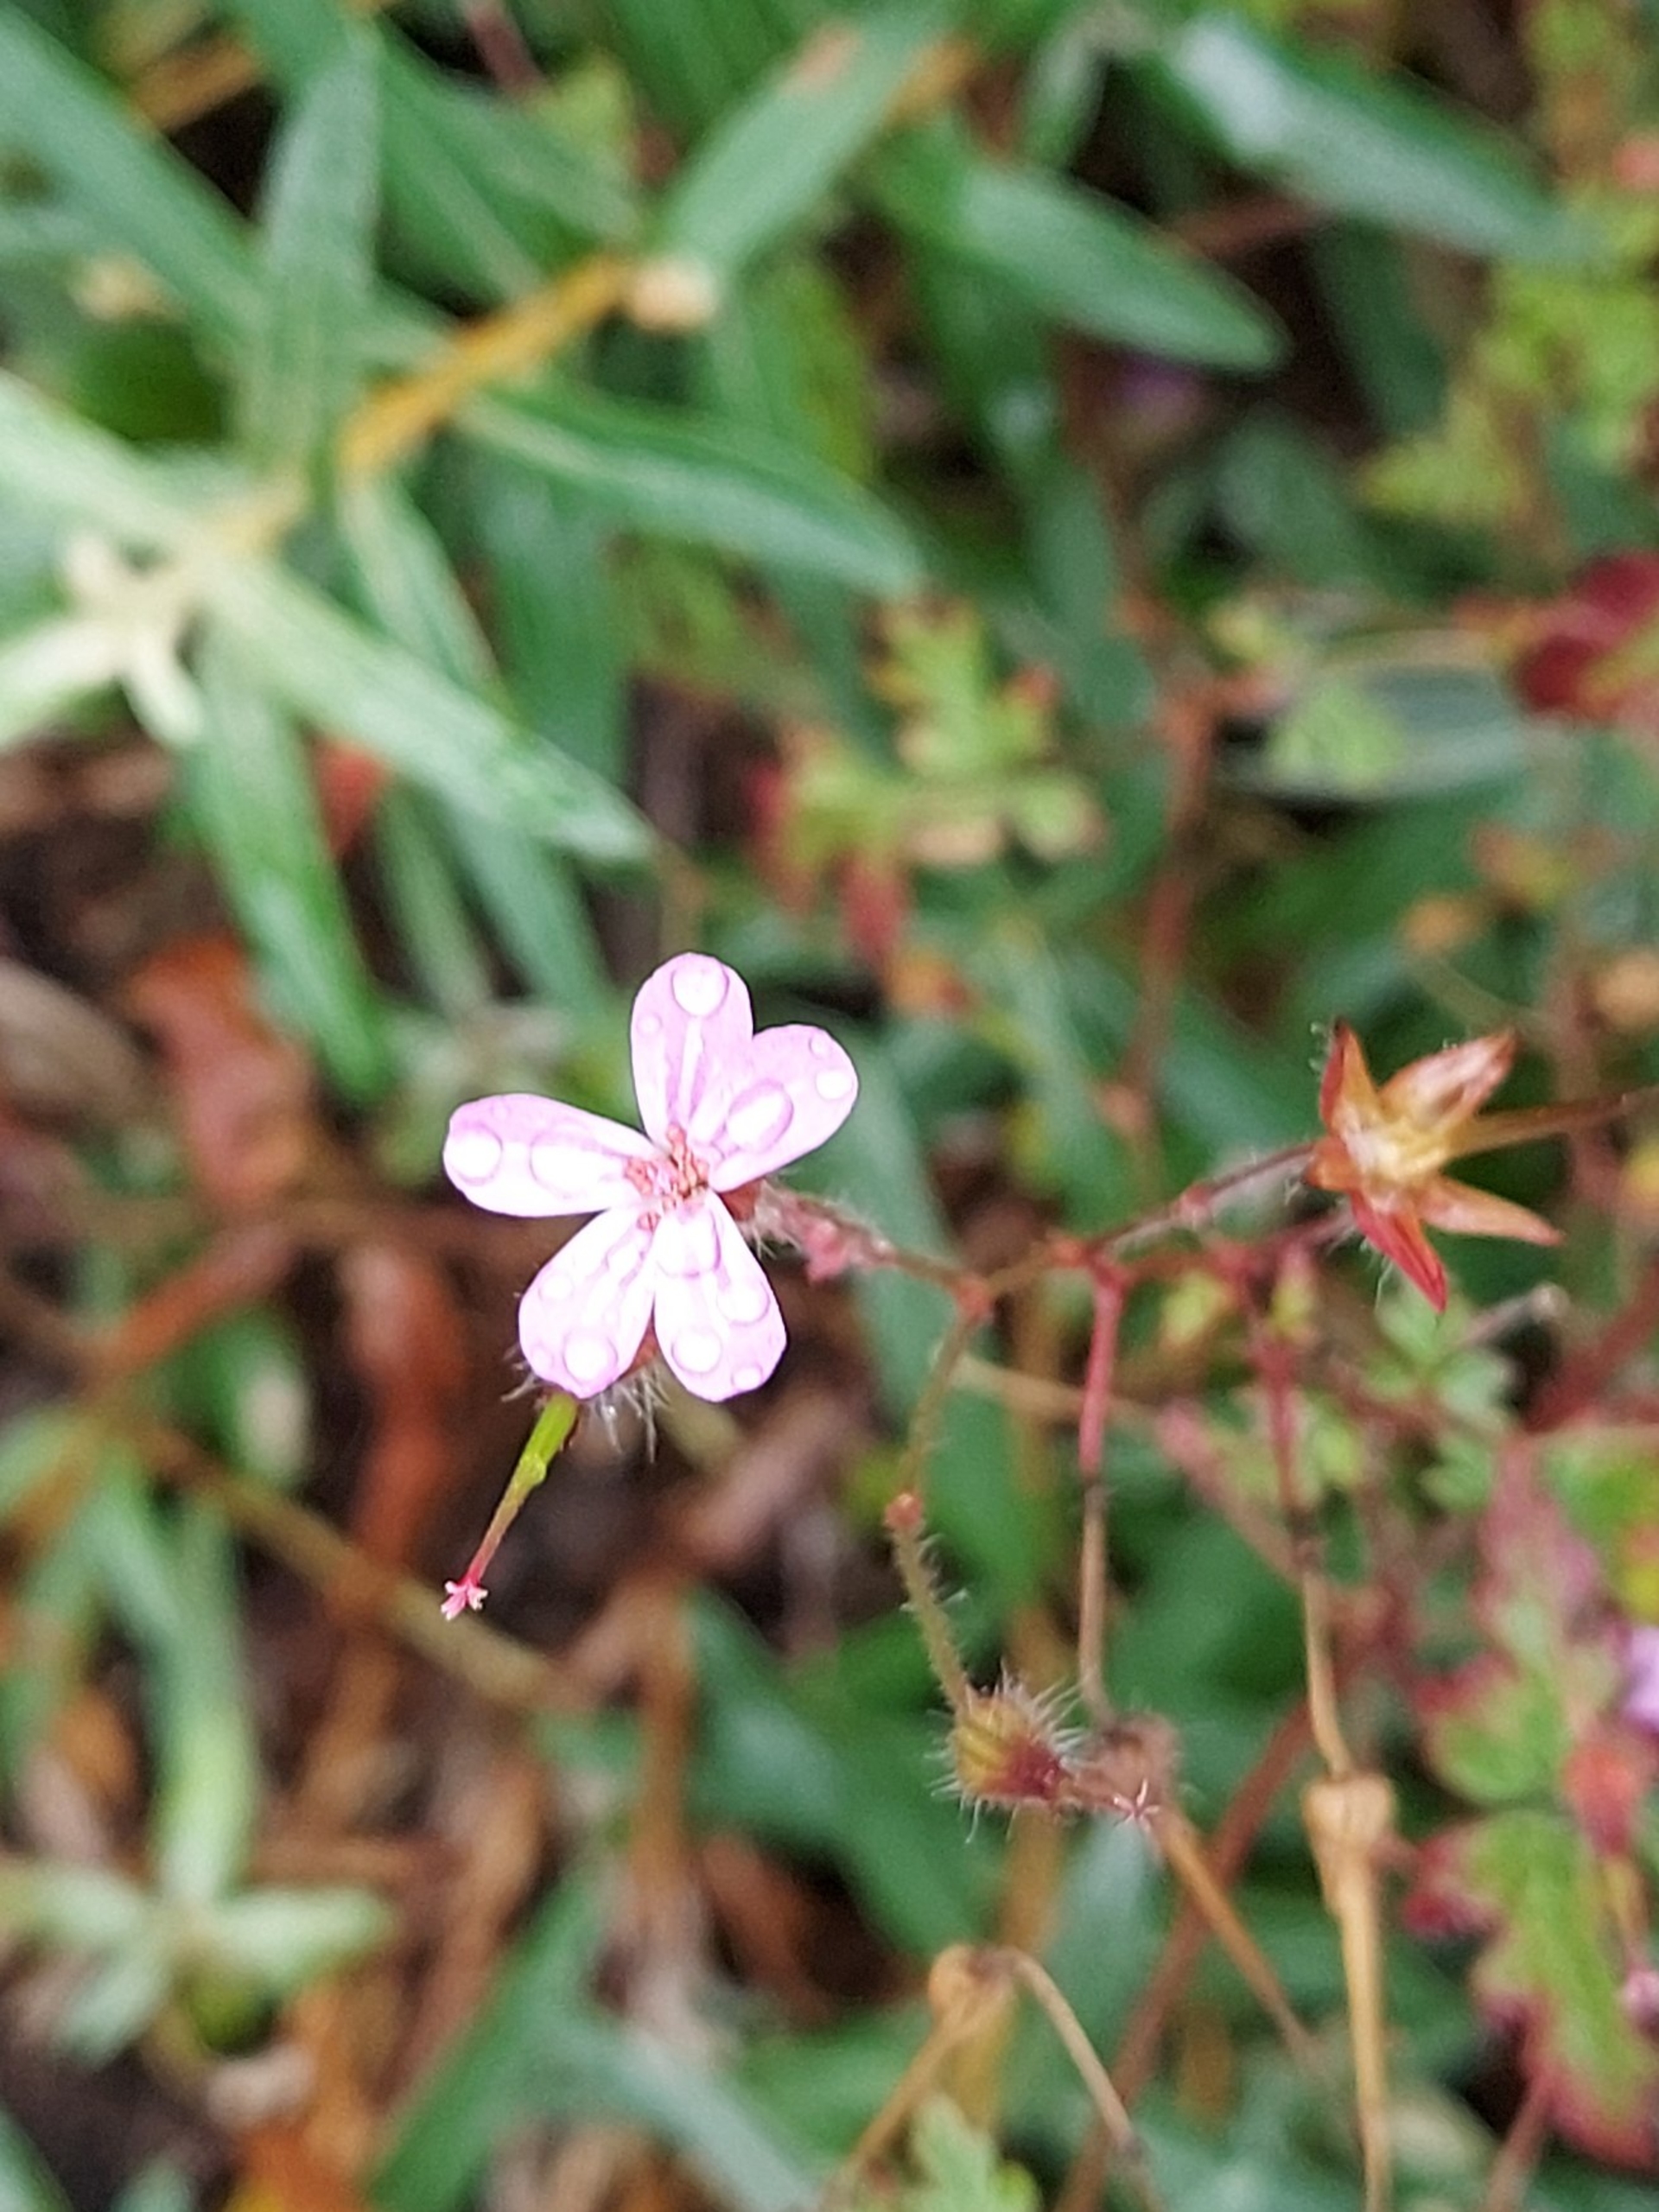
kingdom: Plantae
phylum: Tracheophyta
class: Magnoliopsida
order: Geraniales
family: Geraniaceae
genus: Geranium
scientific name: Geranium robertianum
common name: Stinkende storkenæb
